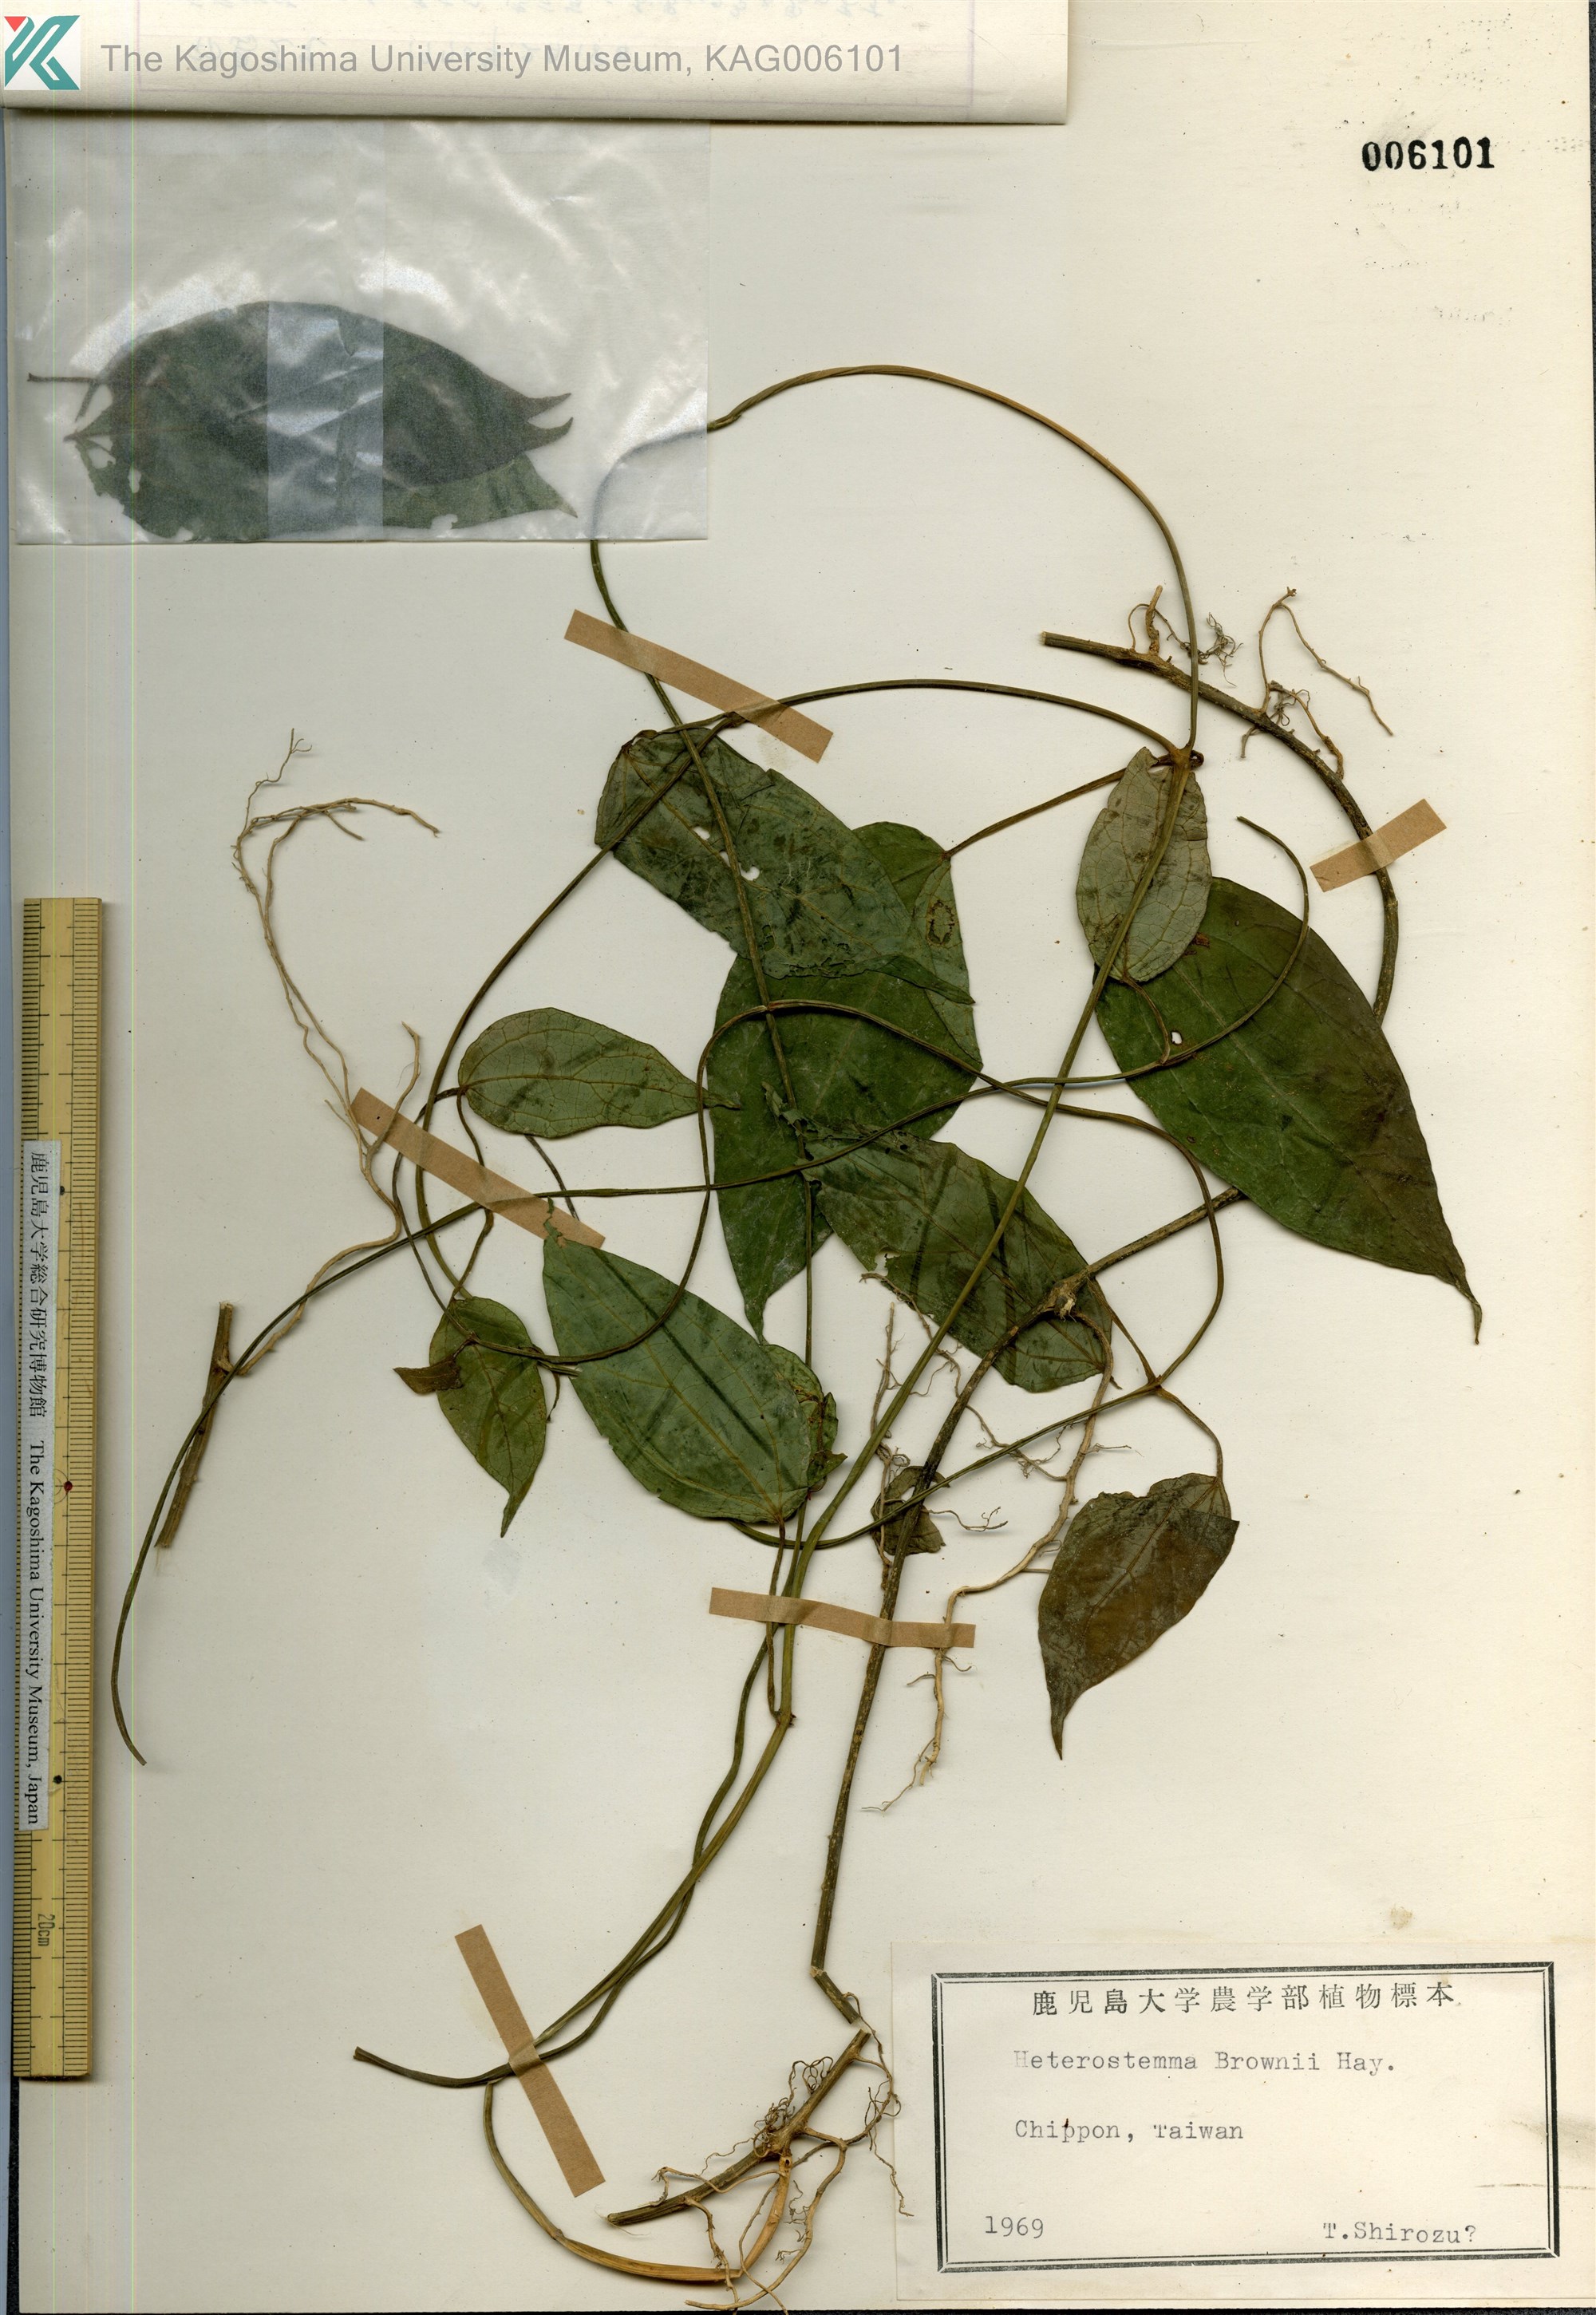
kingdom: Plantae
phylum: Tracheophyta
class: Magnoliopsida
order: Gentianales
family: Apocynaceae
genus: Heterostemma
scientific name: Heterostemma brownii
